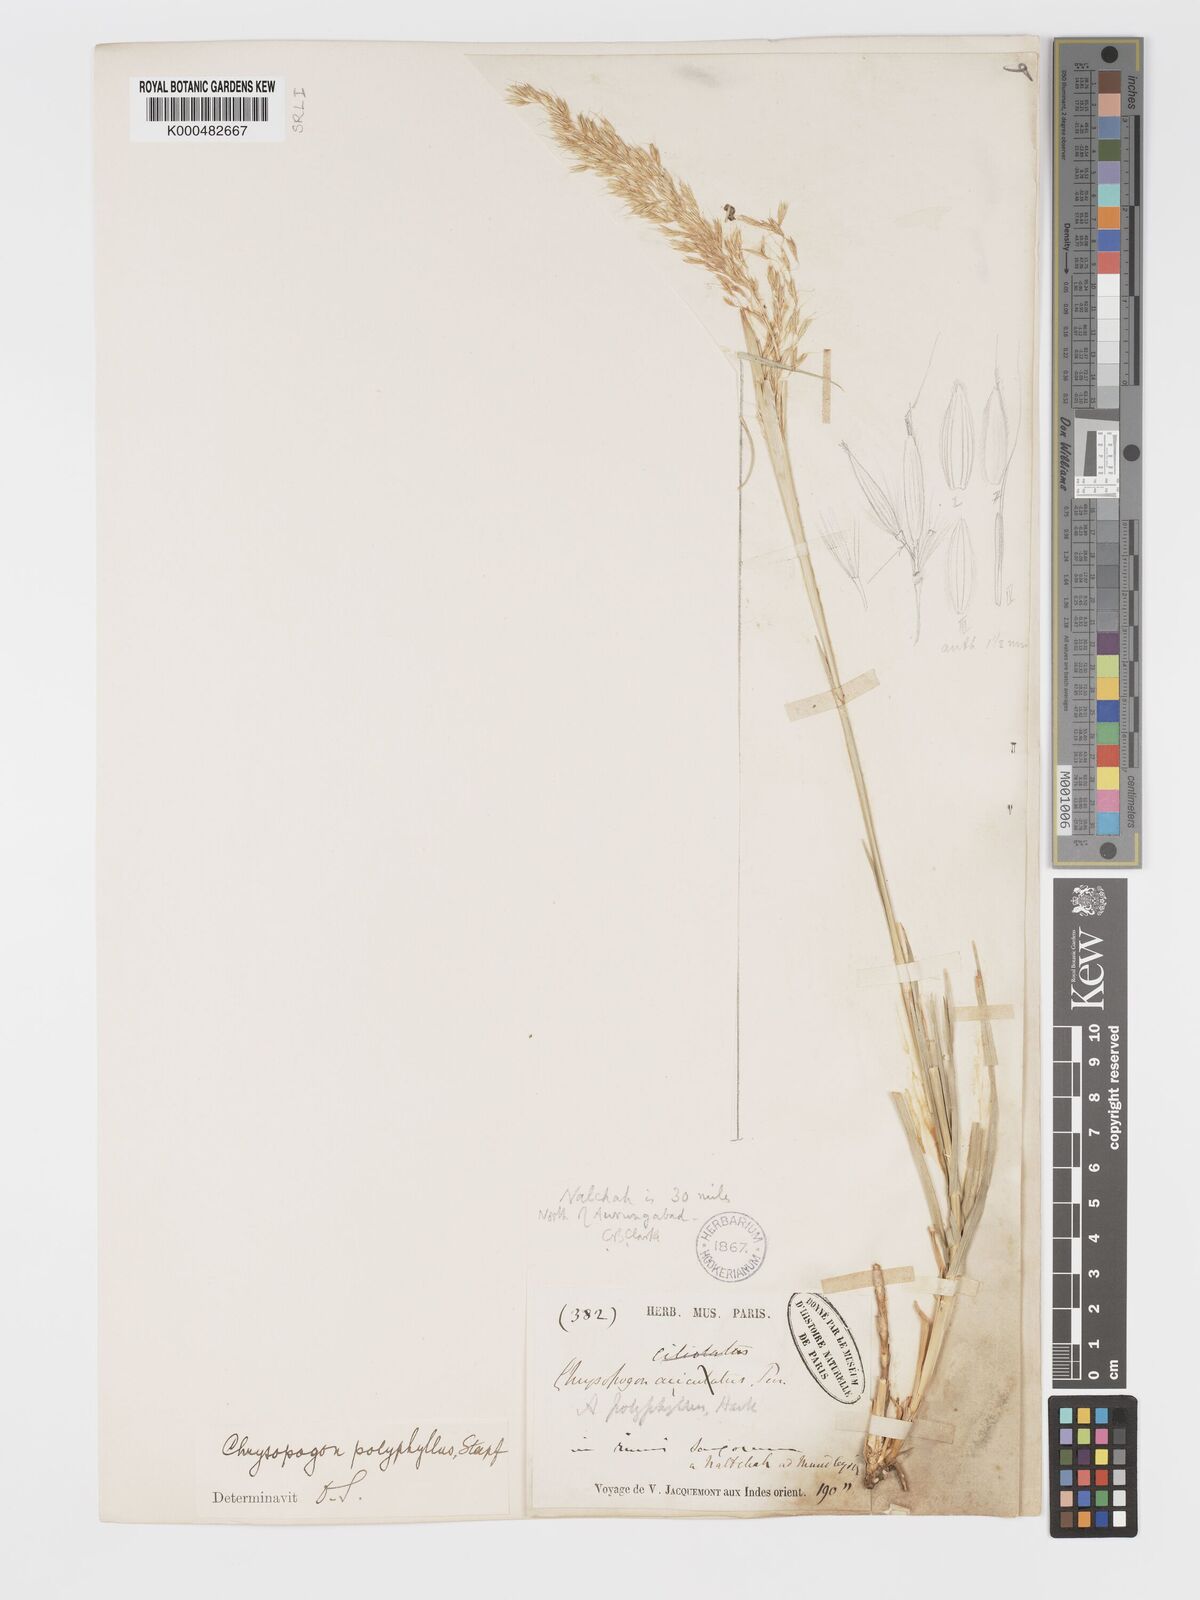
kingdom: Plantae
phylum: Tracheophyta
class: Liliopsida
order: Poales
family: Poaceae
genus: Chrysopogon
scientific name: Chrysopogon polyphyllus
